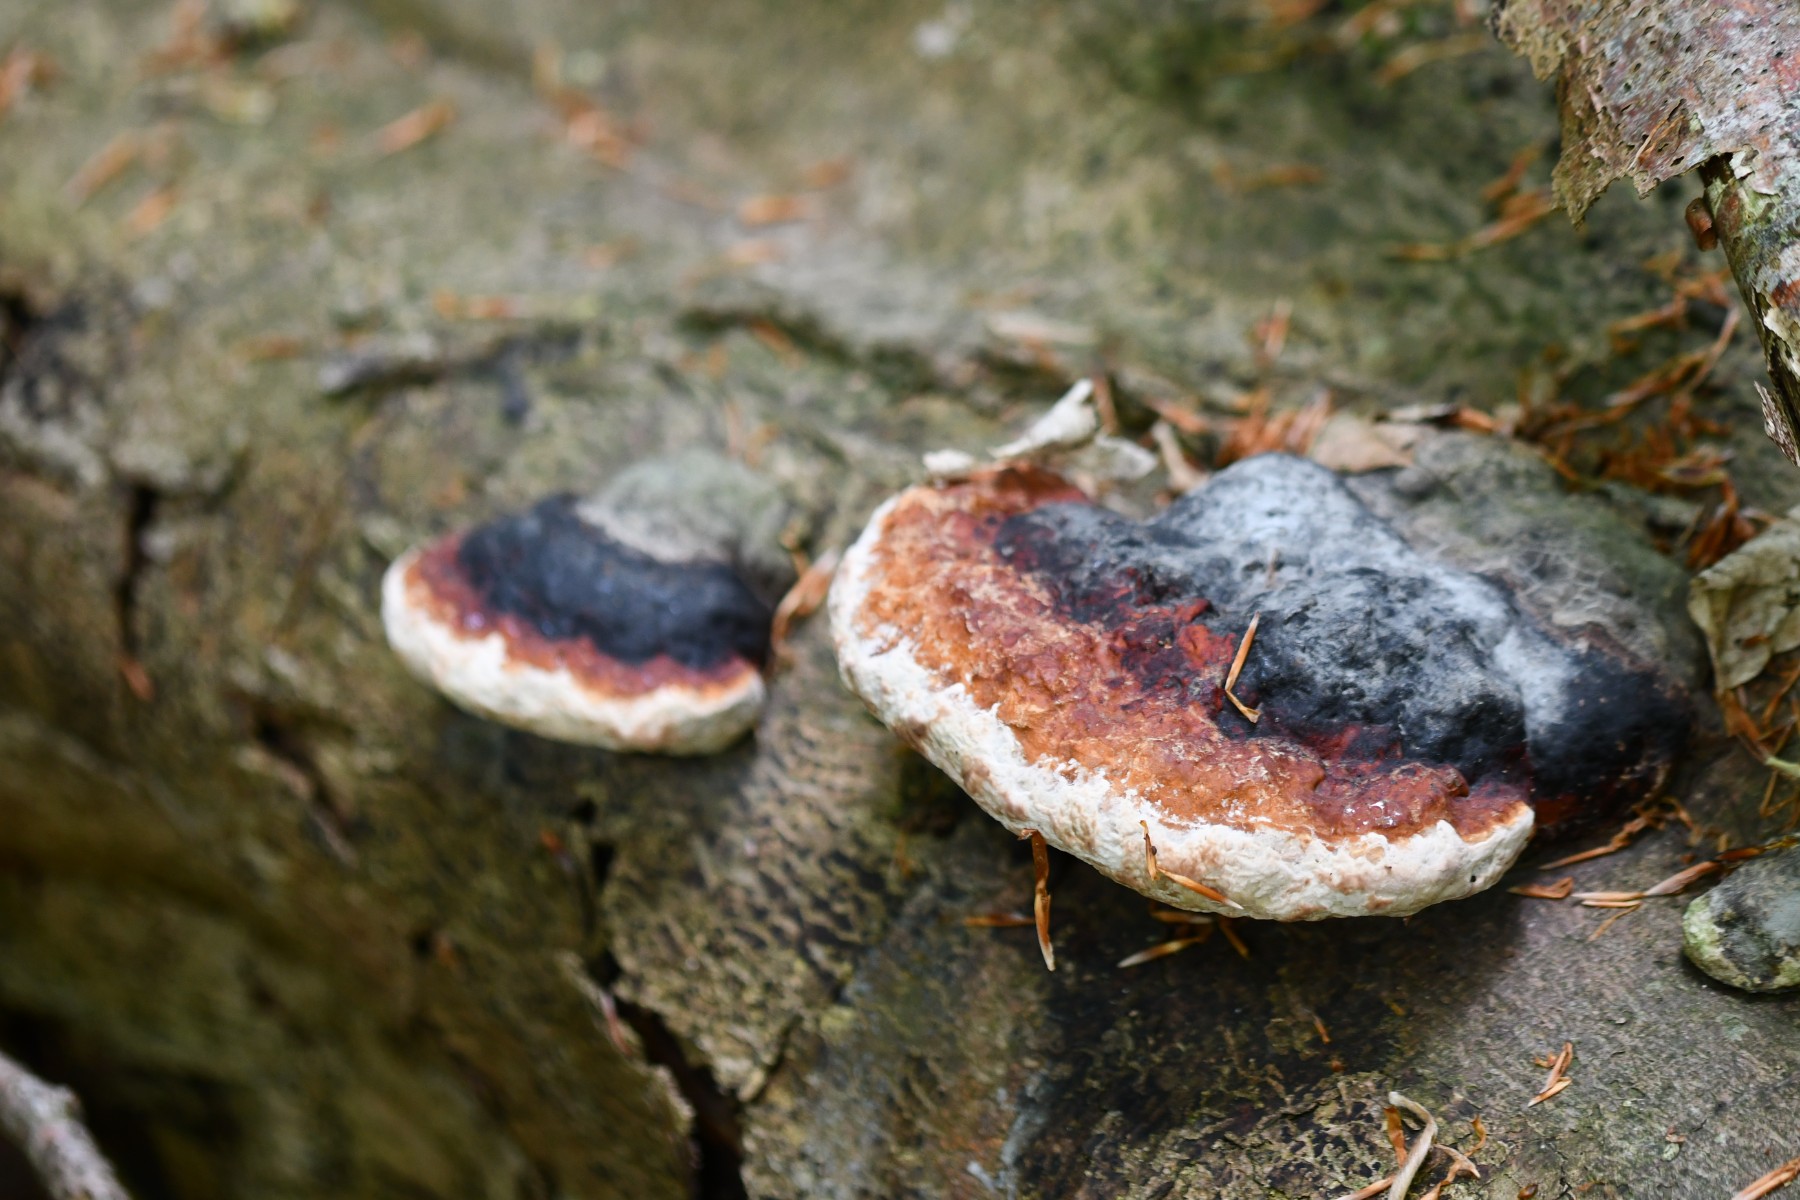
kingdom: Fungi
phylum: Basidiomycota
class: Agaricomycetes
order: Polyporales
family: Fomitopsidaceae
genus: Fomitopsis
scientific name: Fomitopsis pinicola
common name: randbæltet hovporesvamp
